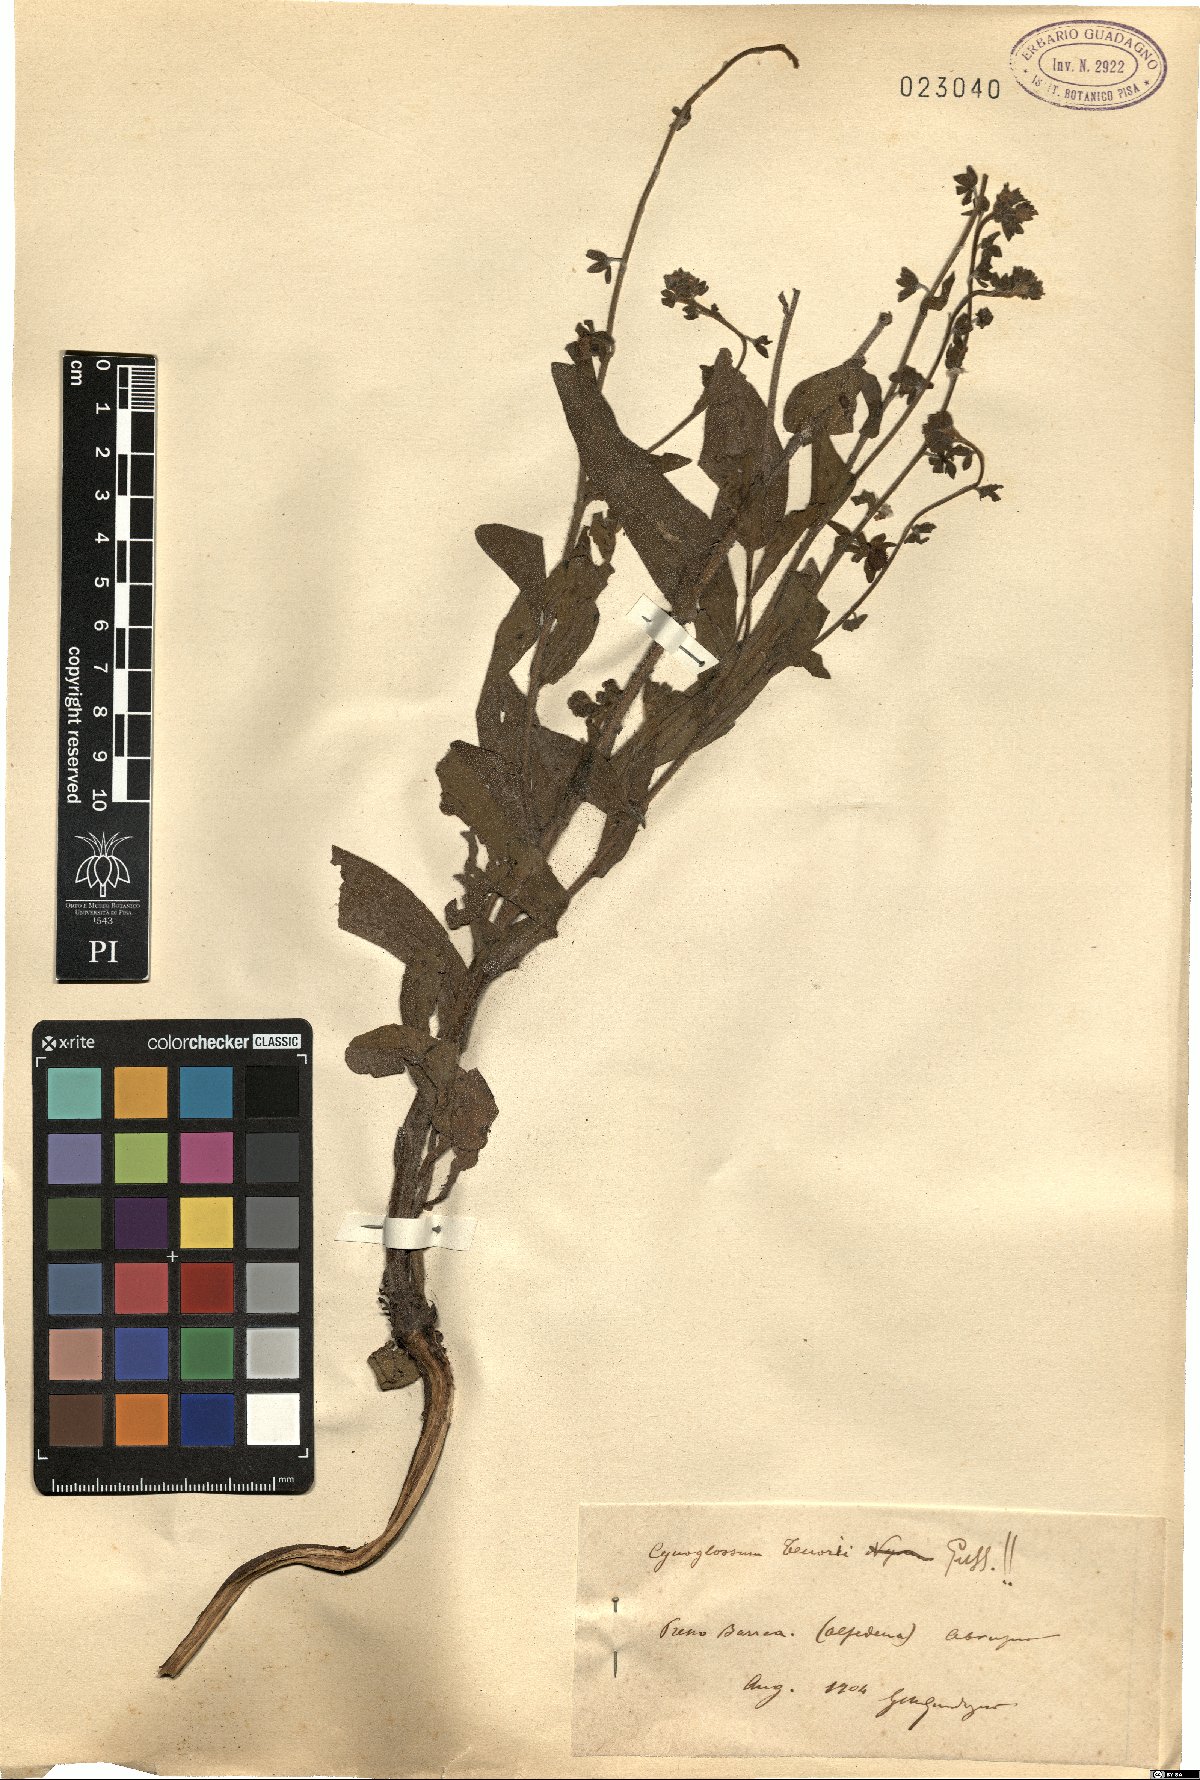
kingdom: Plantae
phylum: Tracheophyta
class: Magnoliopsida
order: Boraginales
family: Boraginaceae
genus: Cynoglossum
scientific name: Cynoglossum nebrodense
